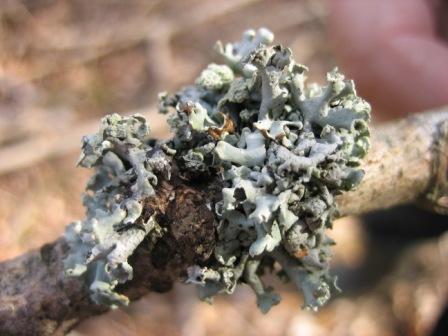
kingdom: Fungi
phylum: Ascomycota
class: Lecanoromycetes
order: Lecanorales
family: Parmeliaceae
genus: Hypogymnia
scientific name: Hypogymnia physodes
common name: almindelig kvistlav
